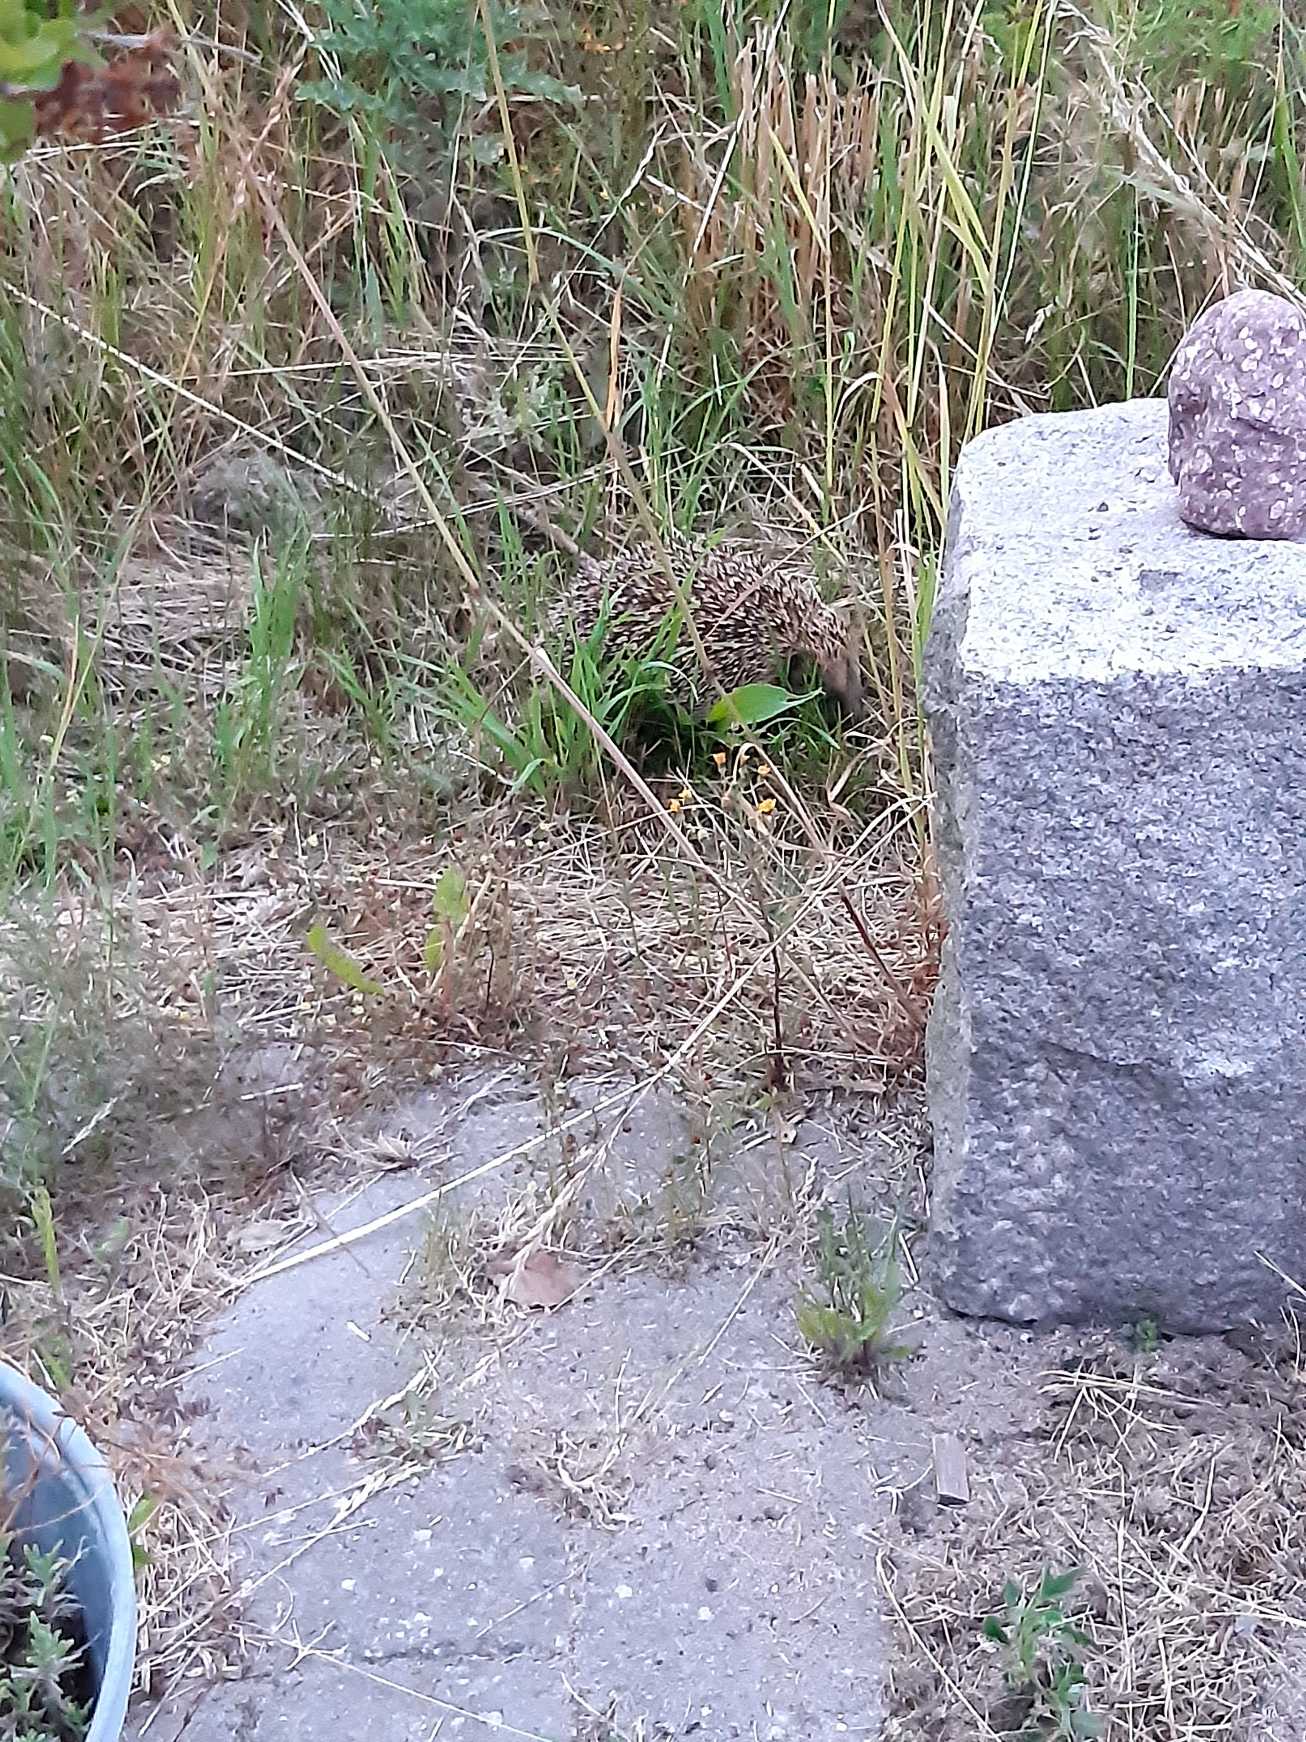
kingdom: Animalia
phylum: Chordata
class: Mammalia
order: Erinaceomorpha
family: Erinaceidae
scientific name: Erinaceidae
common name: Pindsvin
